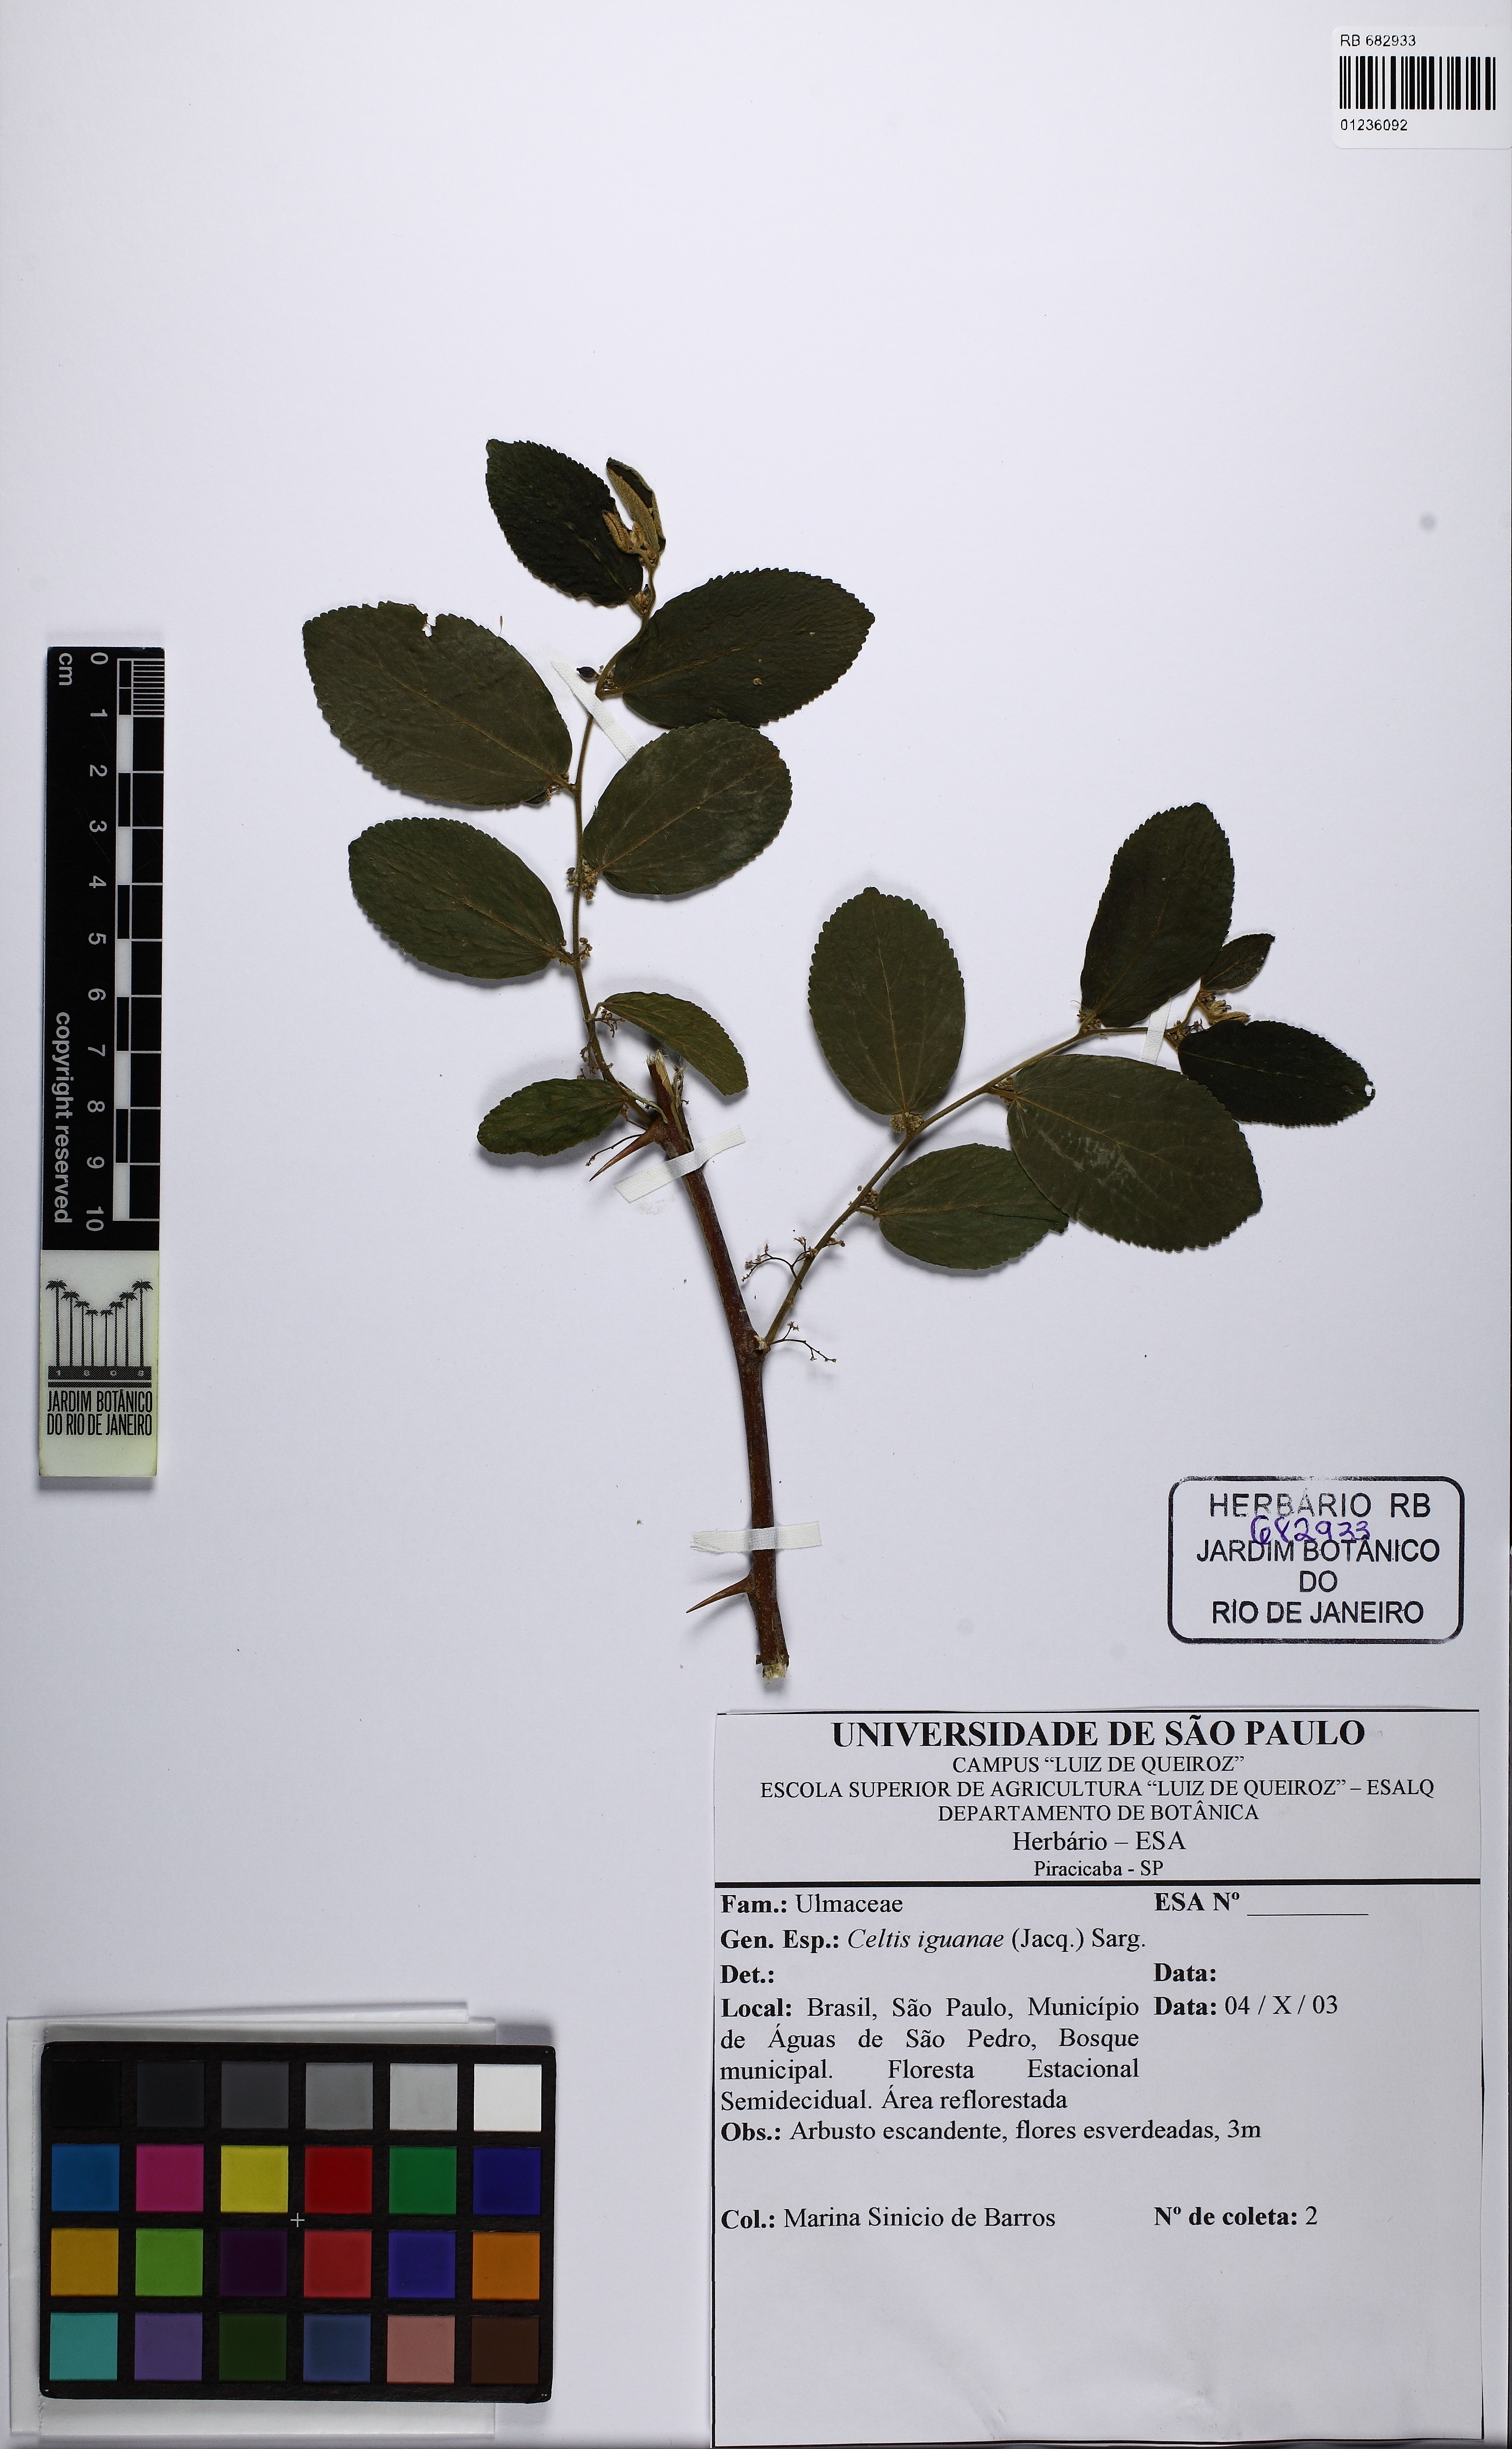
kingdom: Plantae
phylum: Tracheophyta
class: Magnoliopsida
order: Rosales
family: Cannabaceae
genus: Celtis
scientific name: Celtis iguanaea
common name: Iguana hackberry
